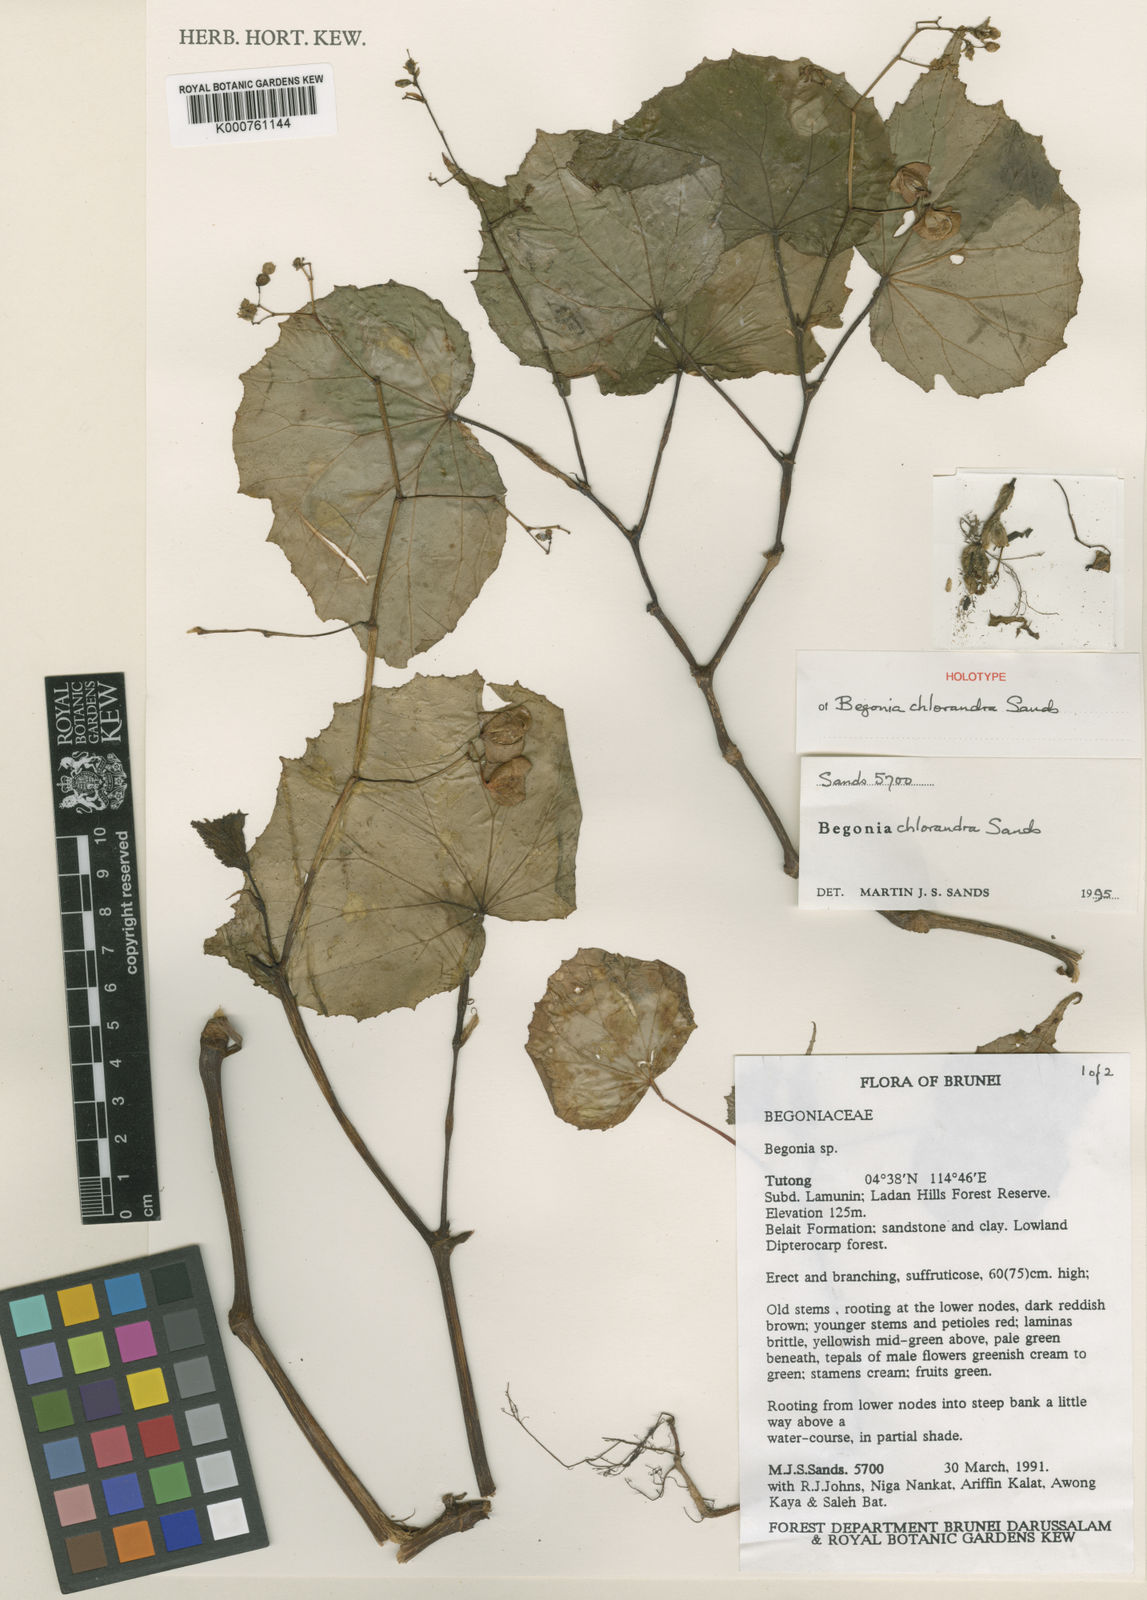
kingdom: Plantae
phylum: Tracheophyta
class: Magnoliopsida
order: Cucurbitales
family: Begoniaceae
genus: Begonia
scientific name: Begonia chlorandra
